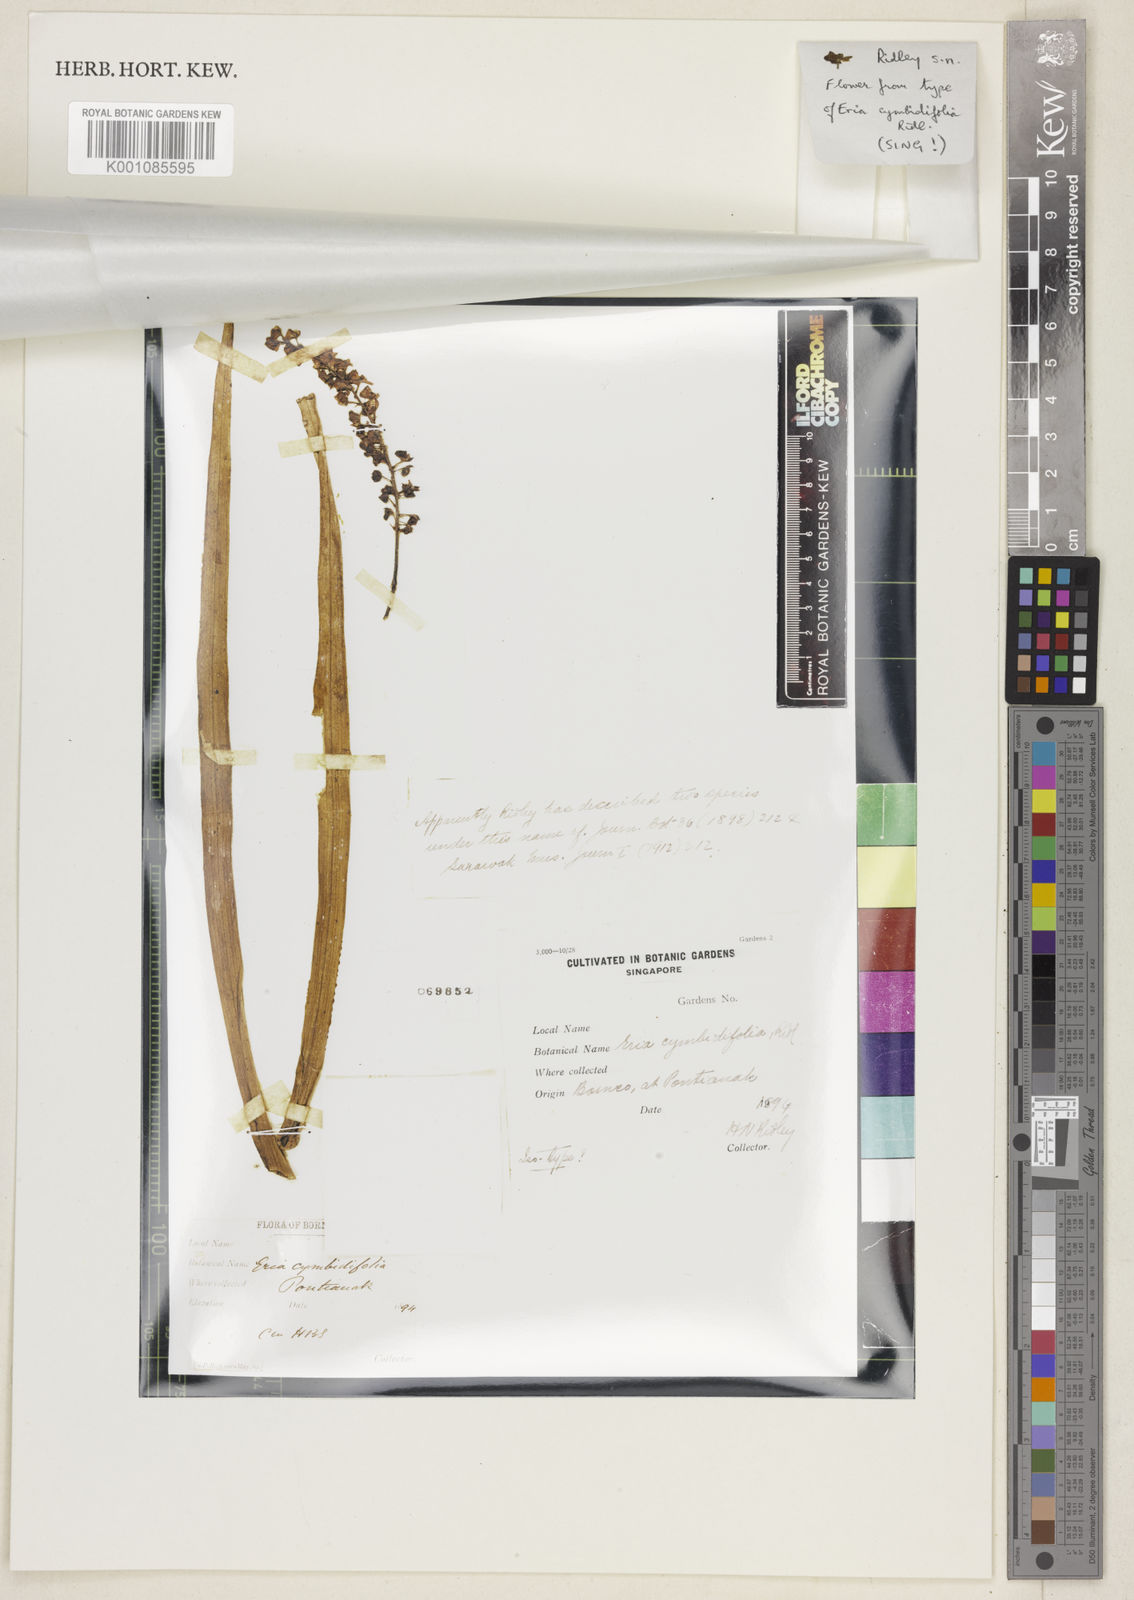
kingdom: Plantae
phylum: Tracheophyta
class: Liliopsida
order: Asparagales
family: Orchidaceae
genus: Cymboglossum
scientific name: Cymboglossum cymbidiifolium
